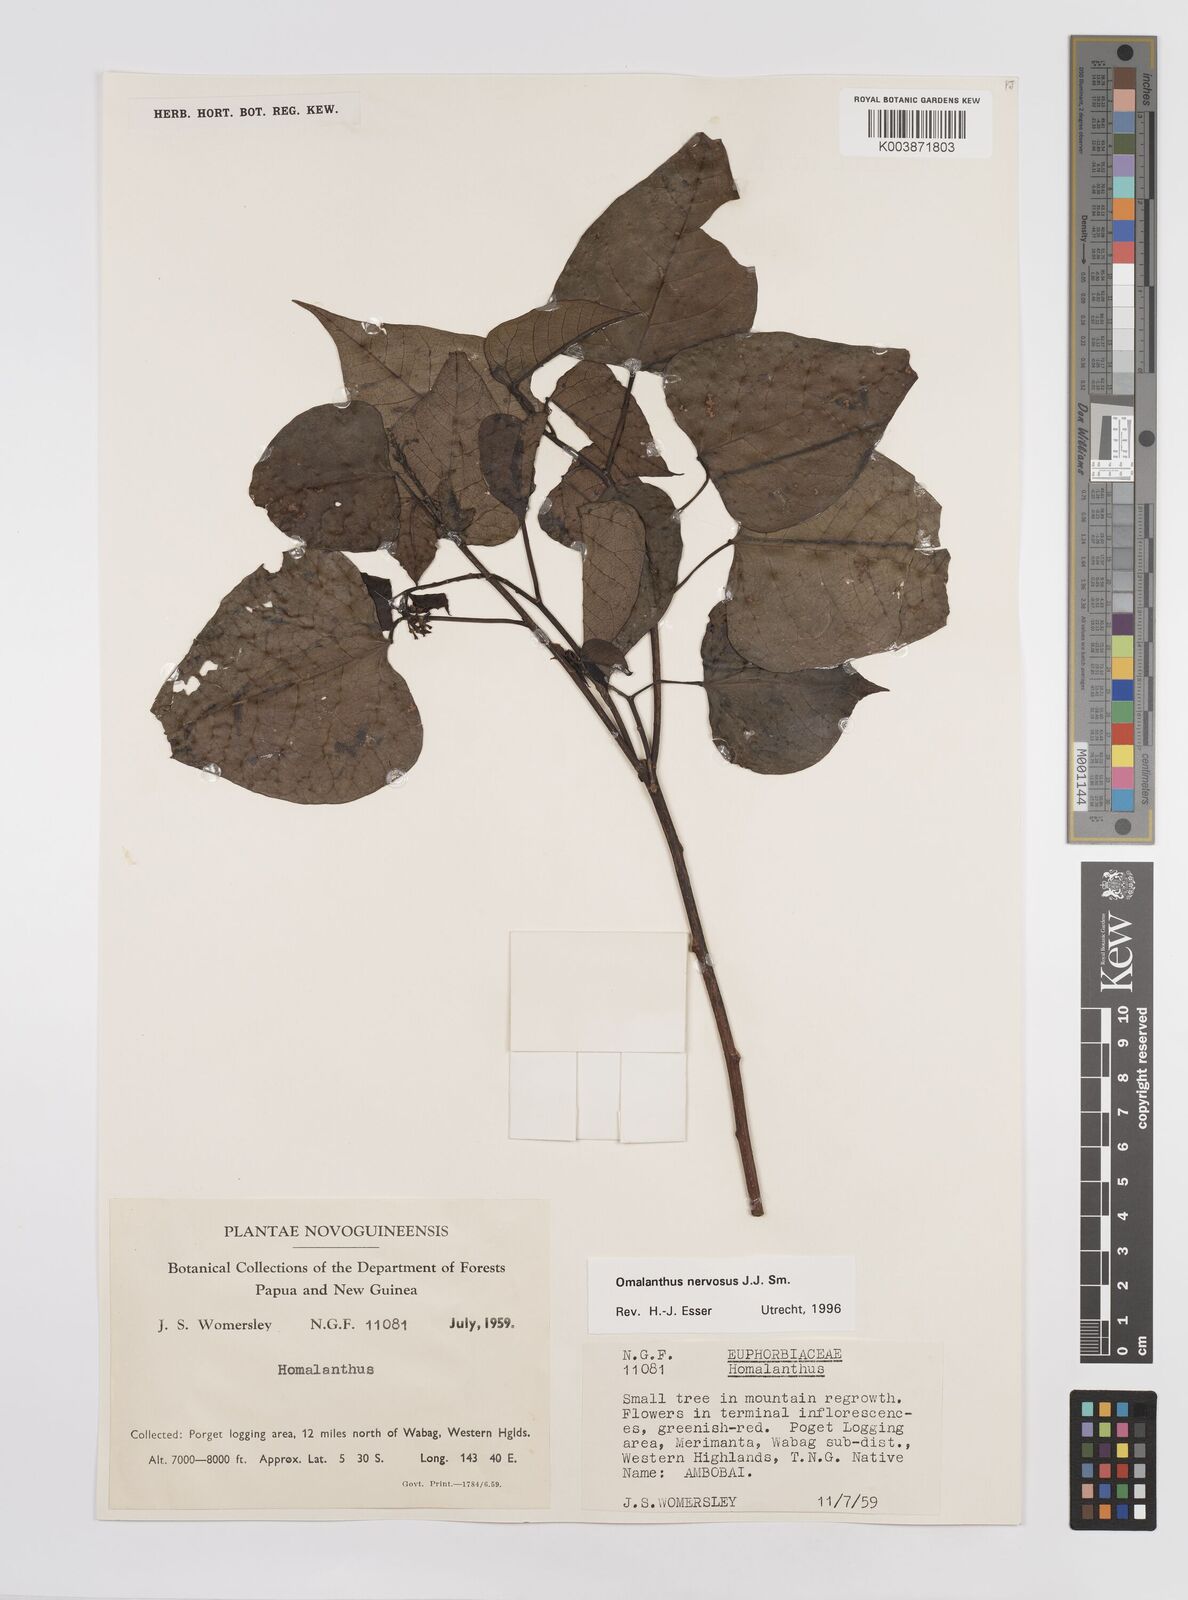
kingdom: Plantae
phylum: Tracheophyta
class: Magnoliopsida
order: Malpighiales
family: Euphorbiaceae
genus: Homalanthus
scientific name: Homalanthus nervosus
